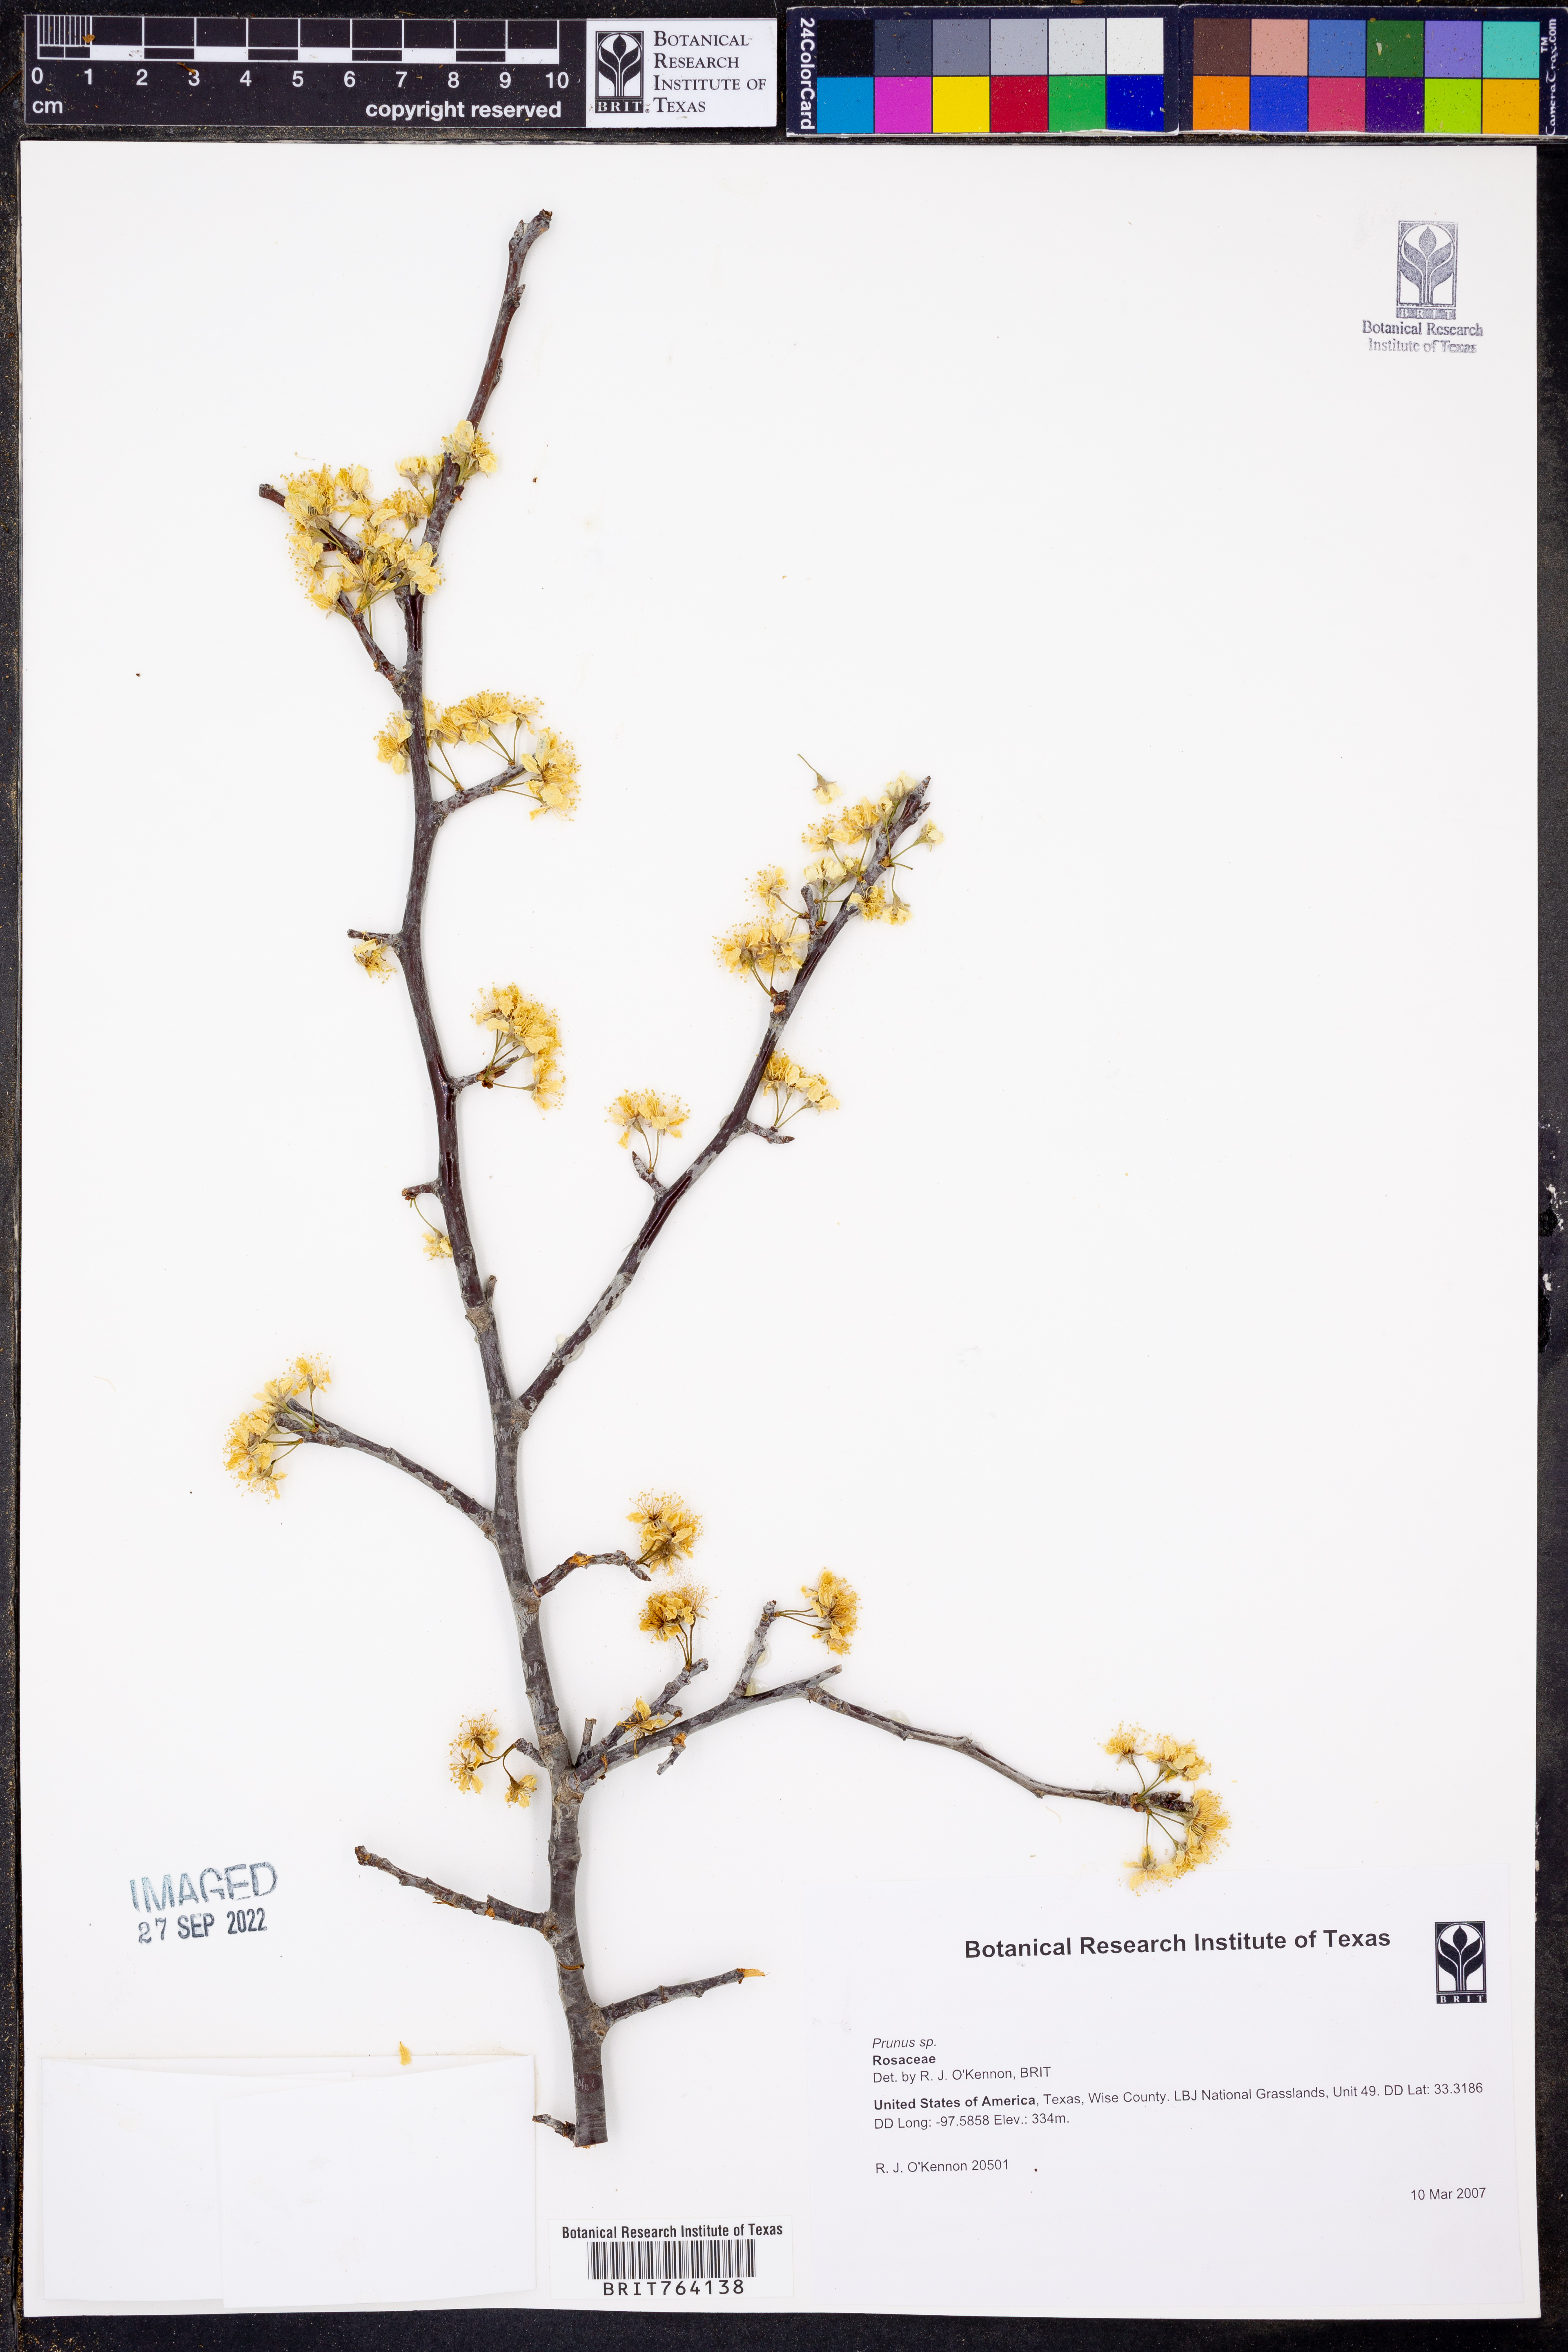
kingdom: Plantae
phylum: Tracheophyta
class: Magnoliopsida
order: Rosales
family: Rosaceae
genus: Prunus
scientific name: Prunus
